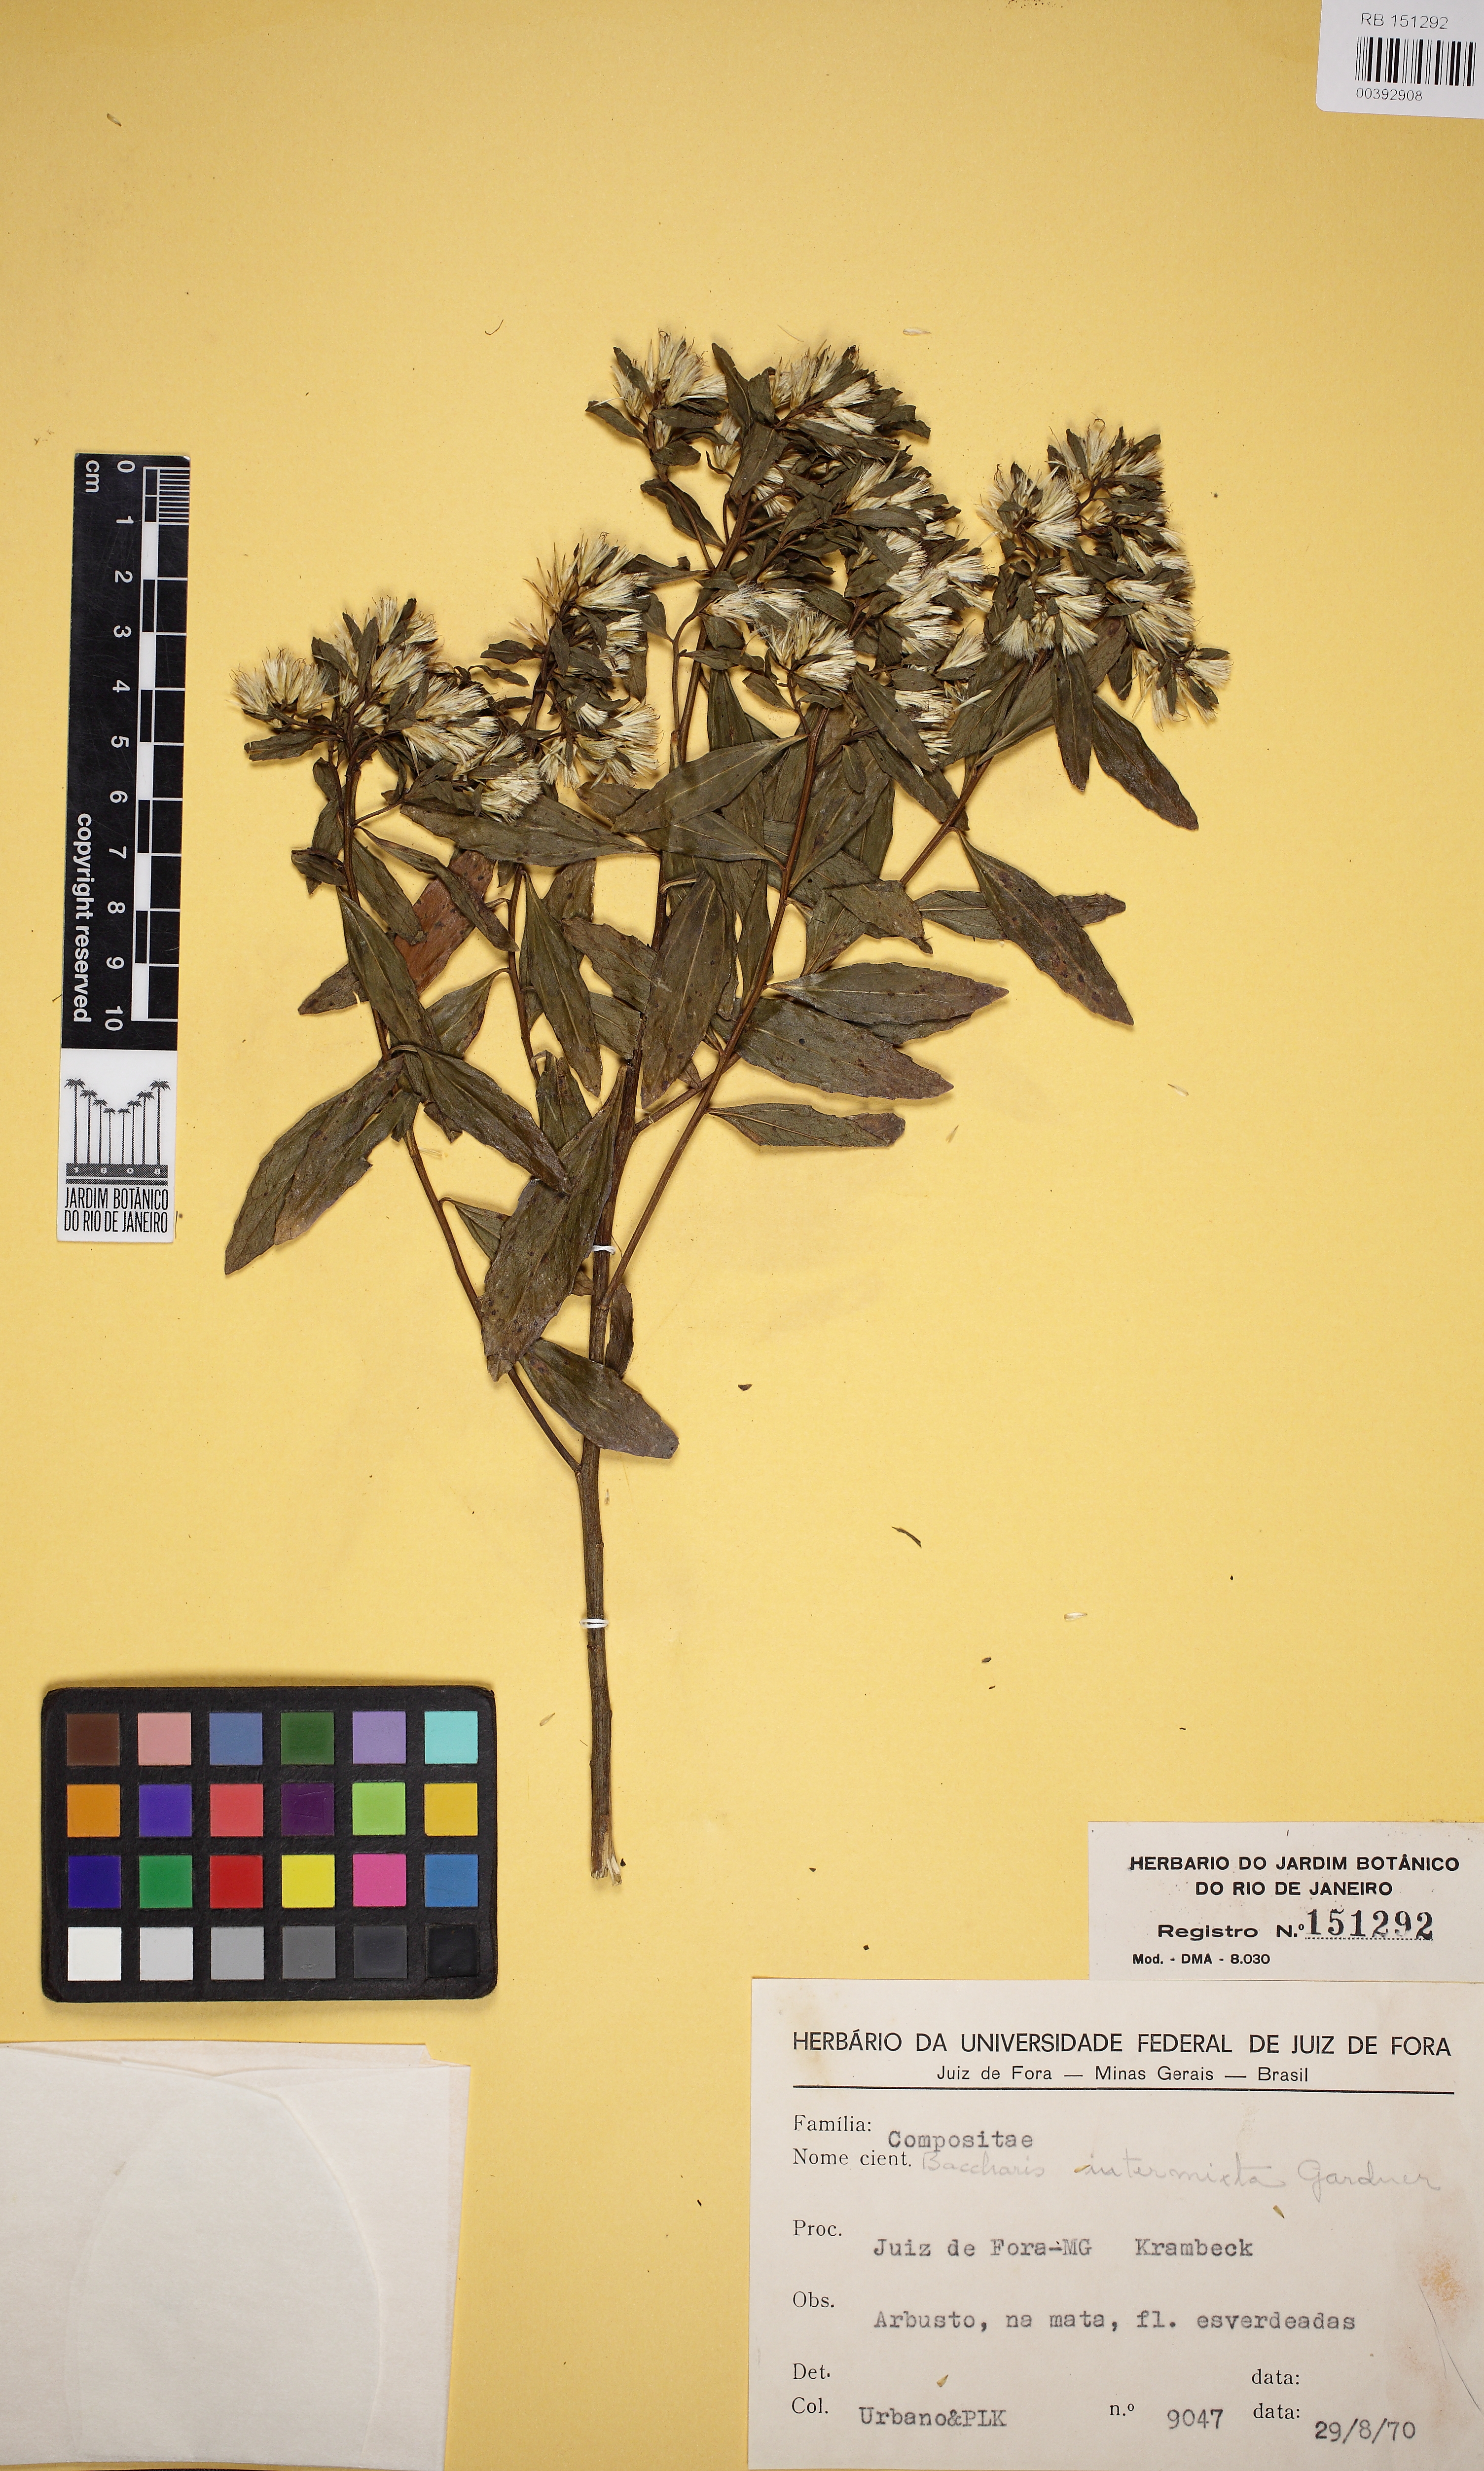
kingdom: Plantae
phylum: Tracheophyta
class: Magnoliopsida
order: Asterales
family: Asteraceae
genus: Baccharis
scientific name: Baccharis intermixta
